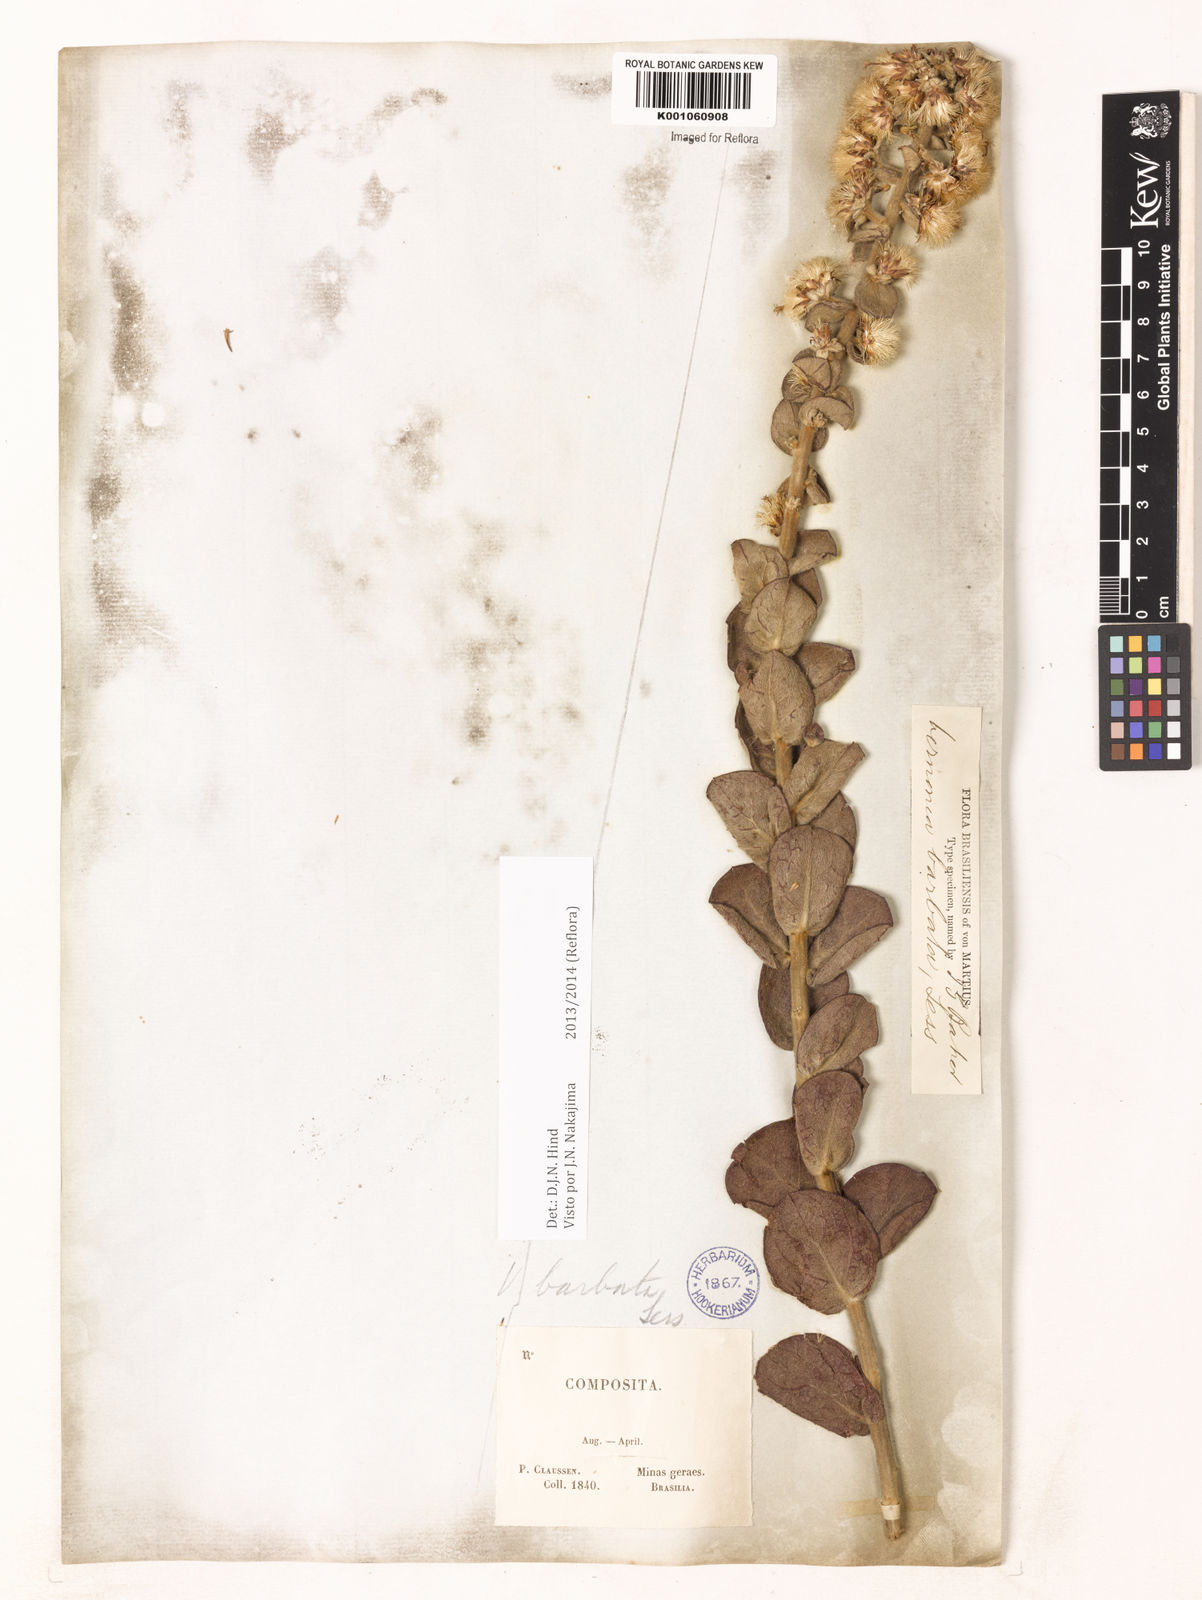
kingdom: Plantae
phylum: Tracheophyta
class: Magnoliopsida
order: Asterales
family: Asteraceae
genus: Lepidaploa
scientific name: Lepidaploa barbata
